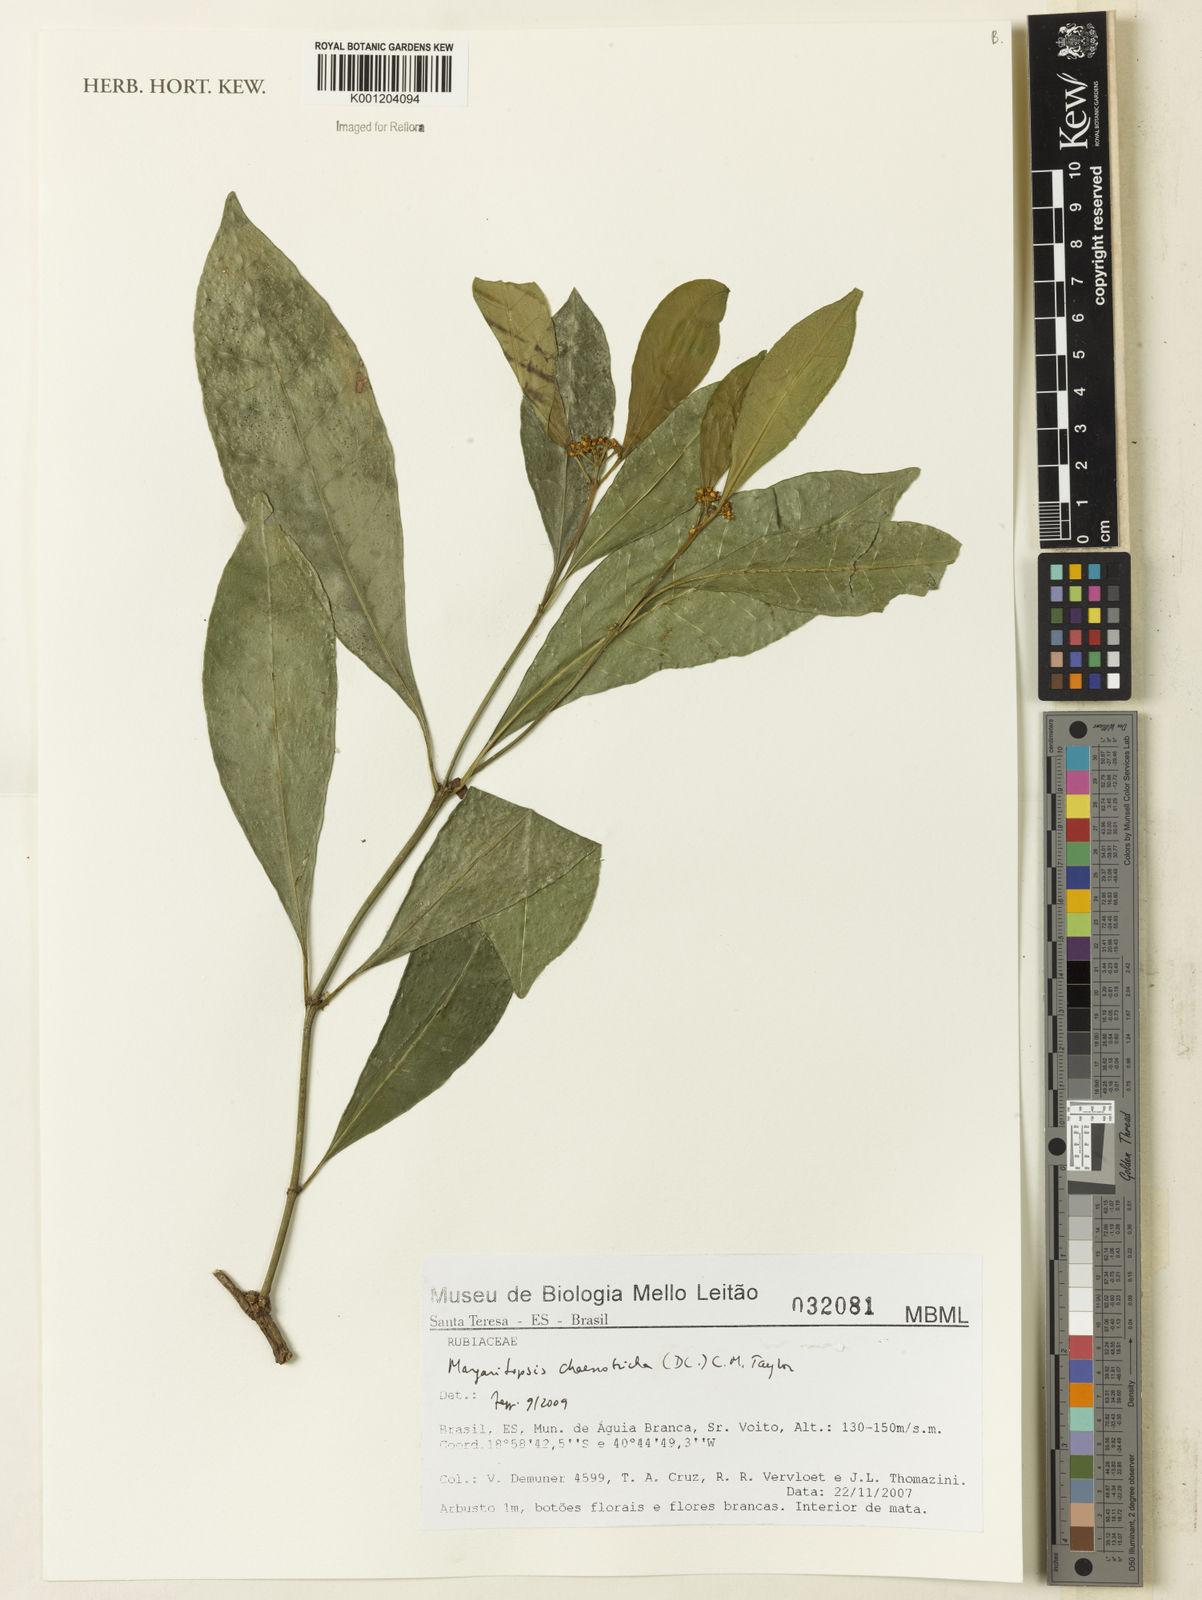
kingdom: Plantae
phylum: Tracheophyta
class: Magnoliopsida
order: Gentianales
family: Rubiaceae
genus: Eumachia
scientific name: Eumachia chaenotricha
